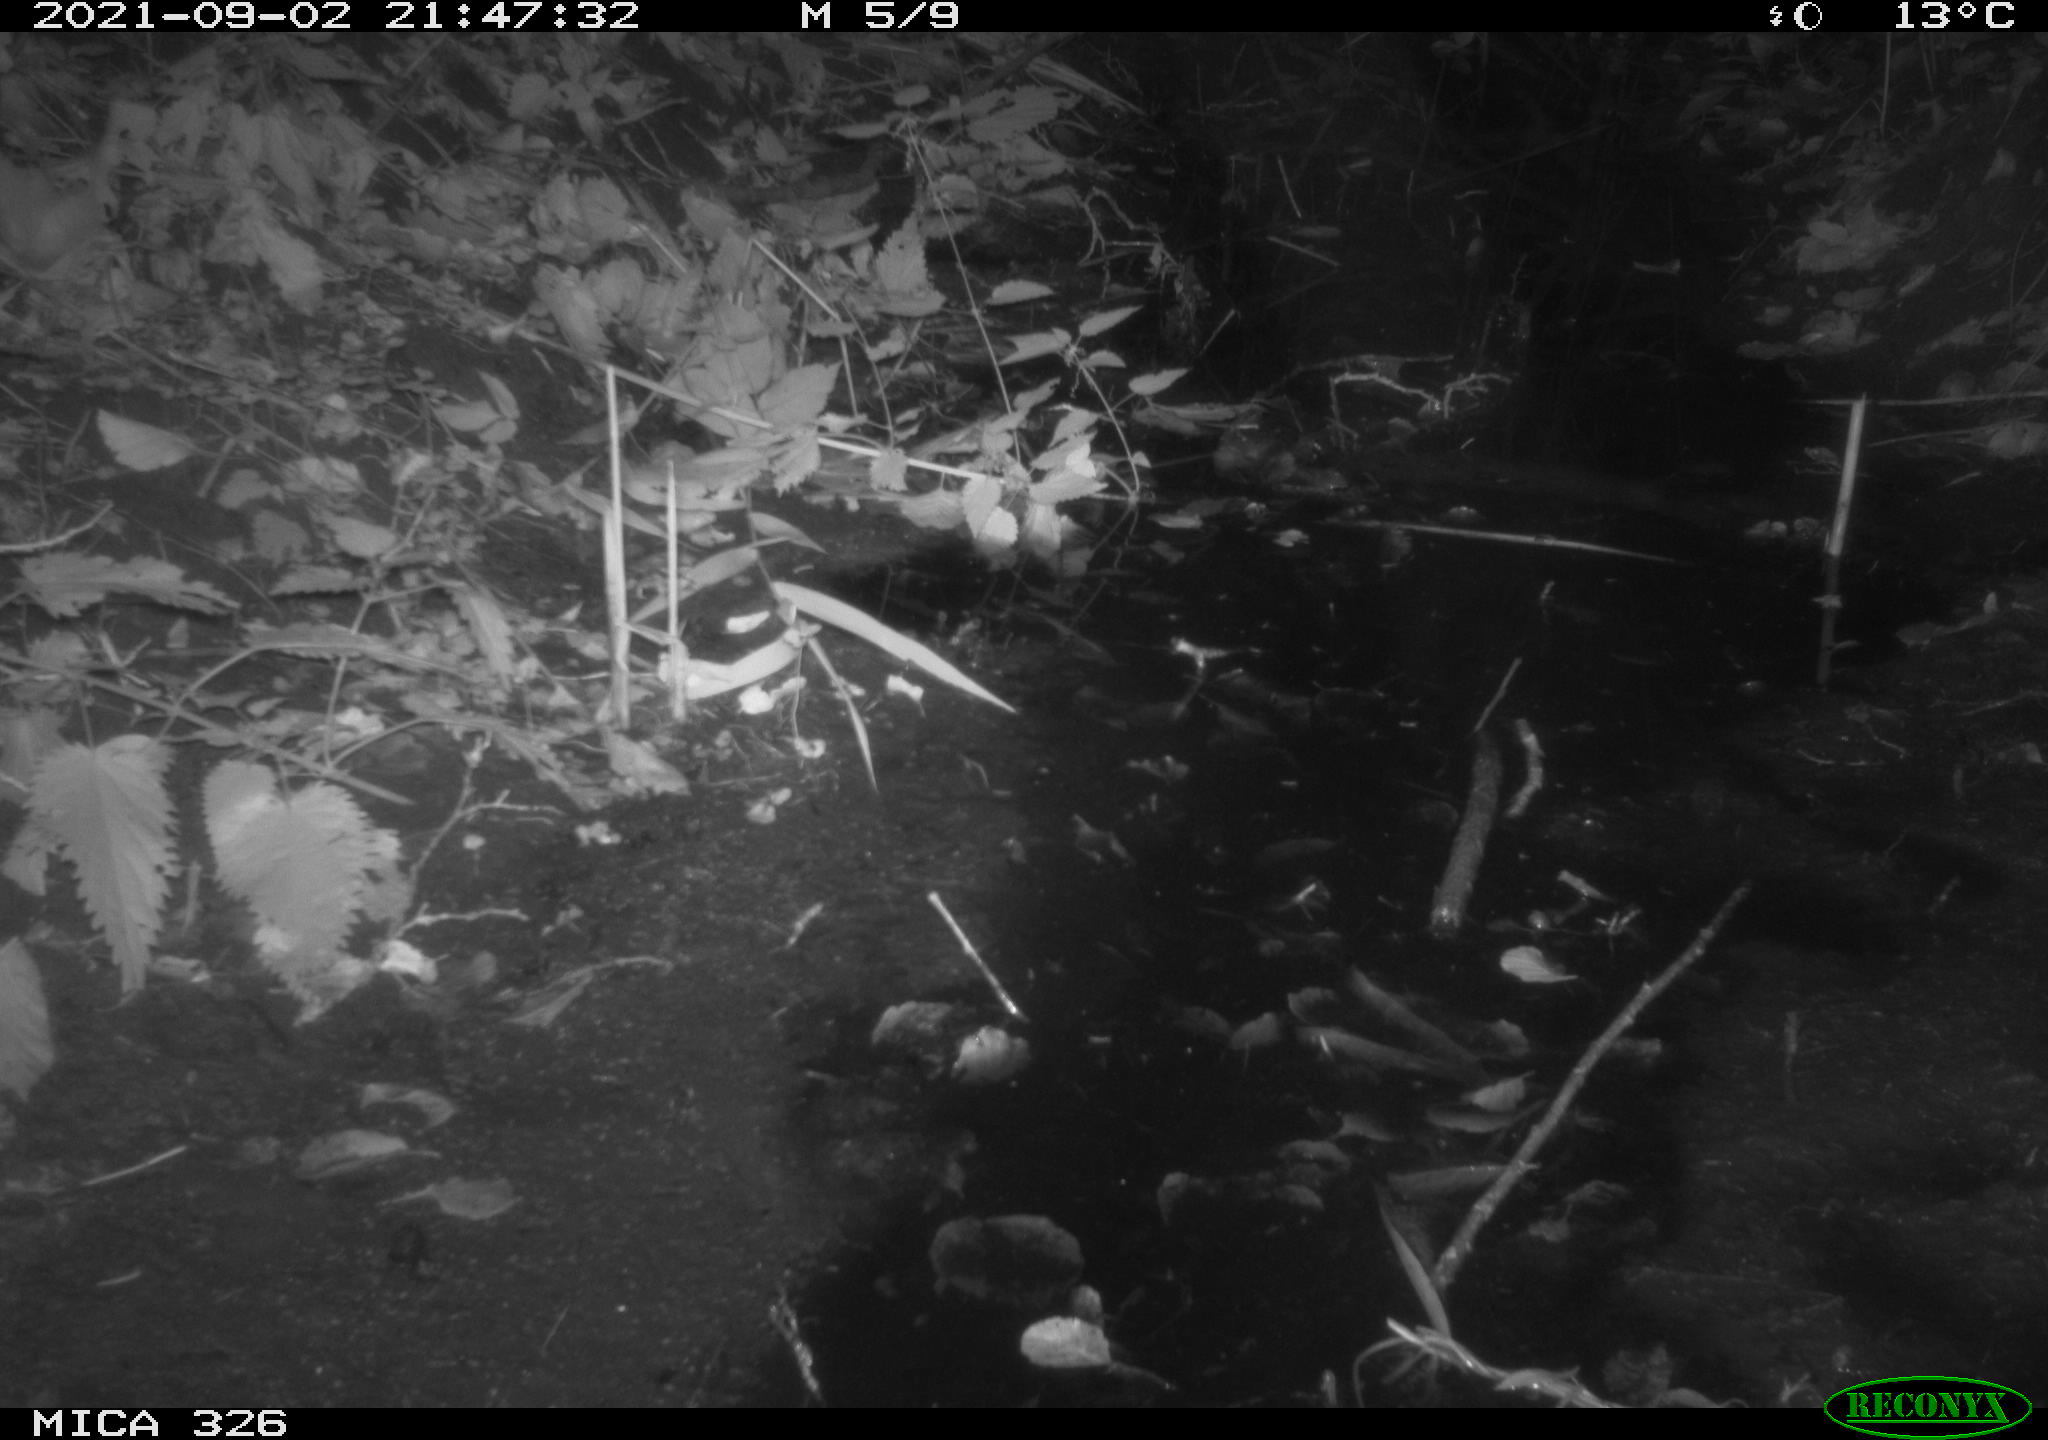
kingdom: Animalia
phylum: Chordata
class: Mammalia
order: Rodentia
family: Muridae
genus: Rattus
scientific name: Rattus norvegicus
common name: Brown rat
